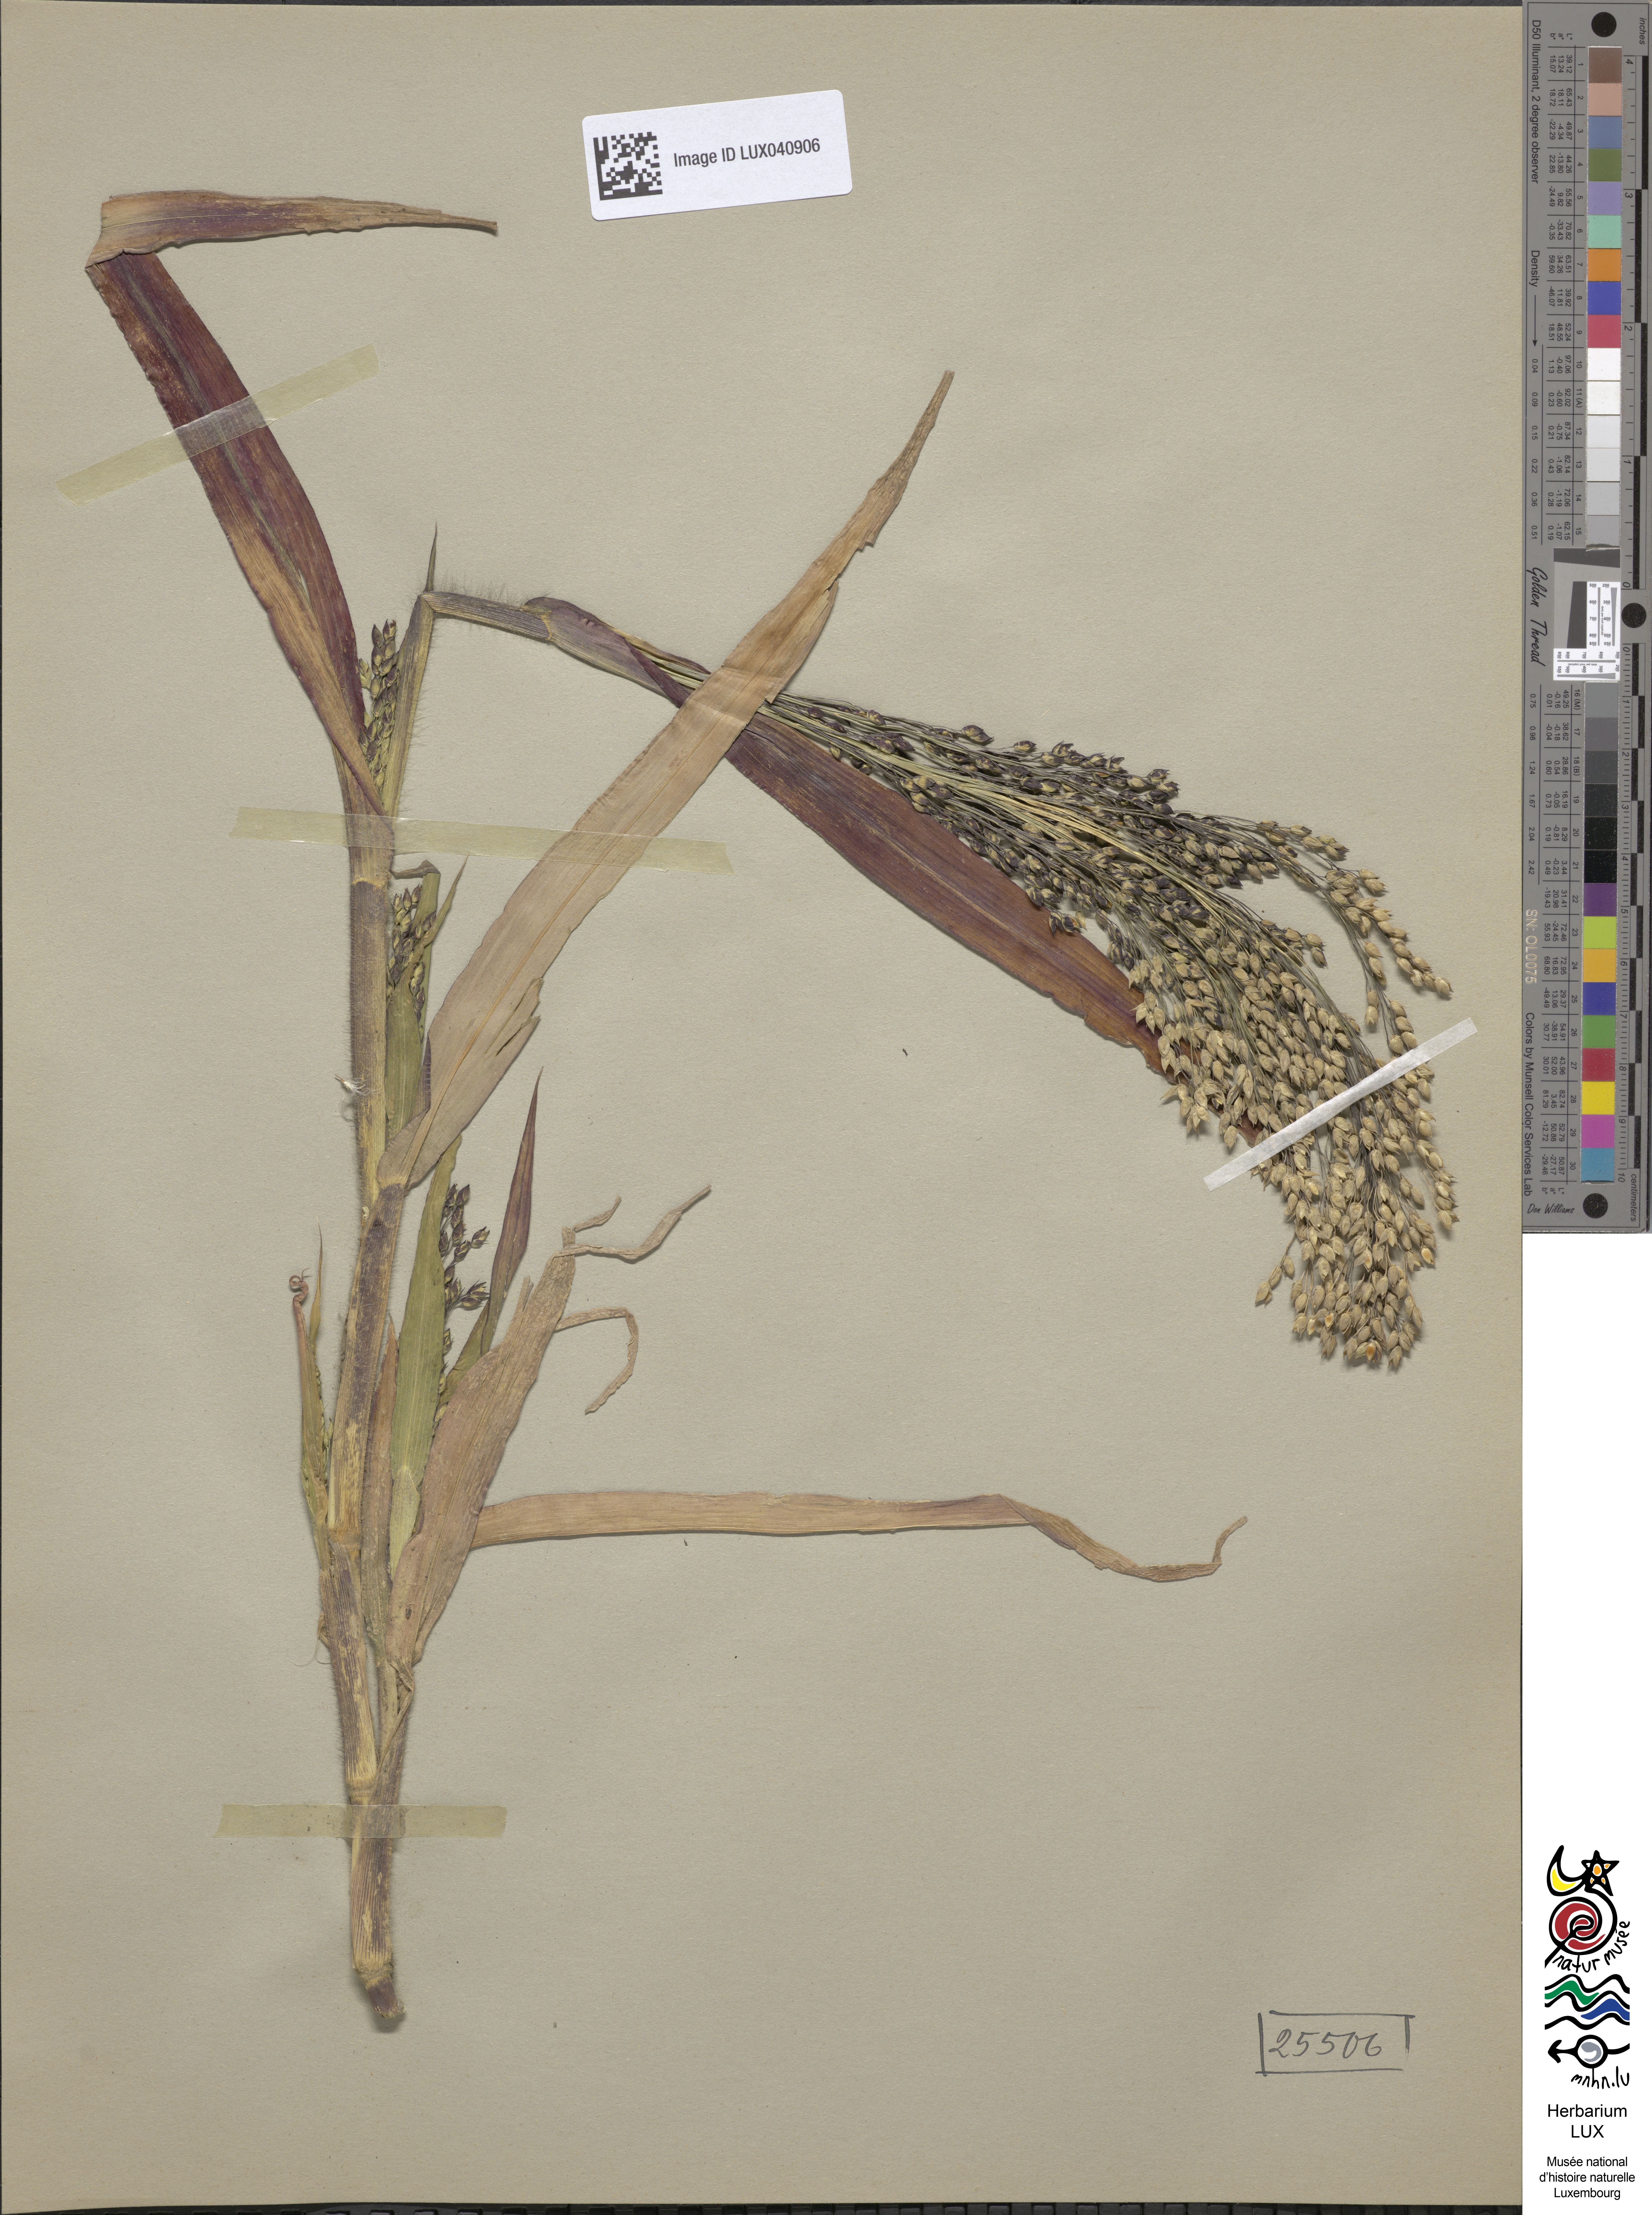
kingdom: Plantae
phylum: Tracheophyta
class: Liliopsida
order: Poales
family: Poaceae
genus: Panicum
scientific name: Panicum miliaceum
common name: Common millet
